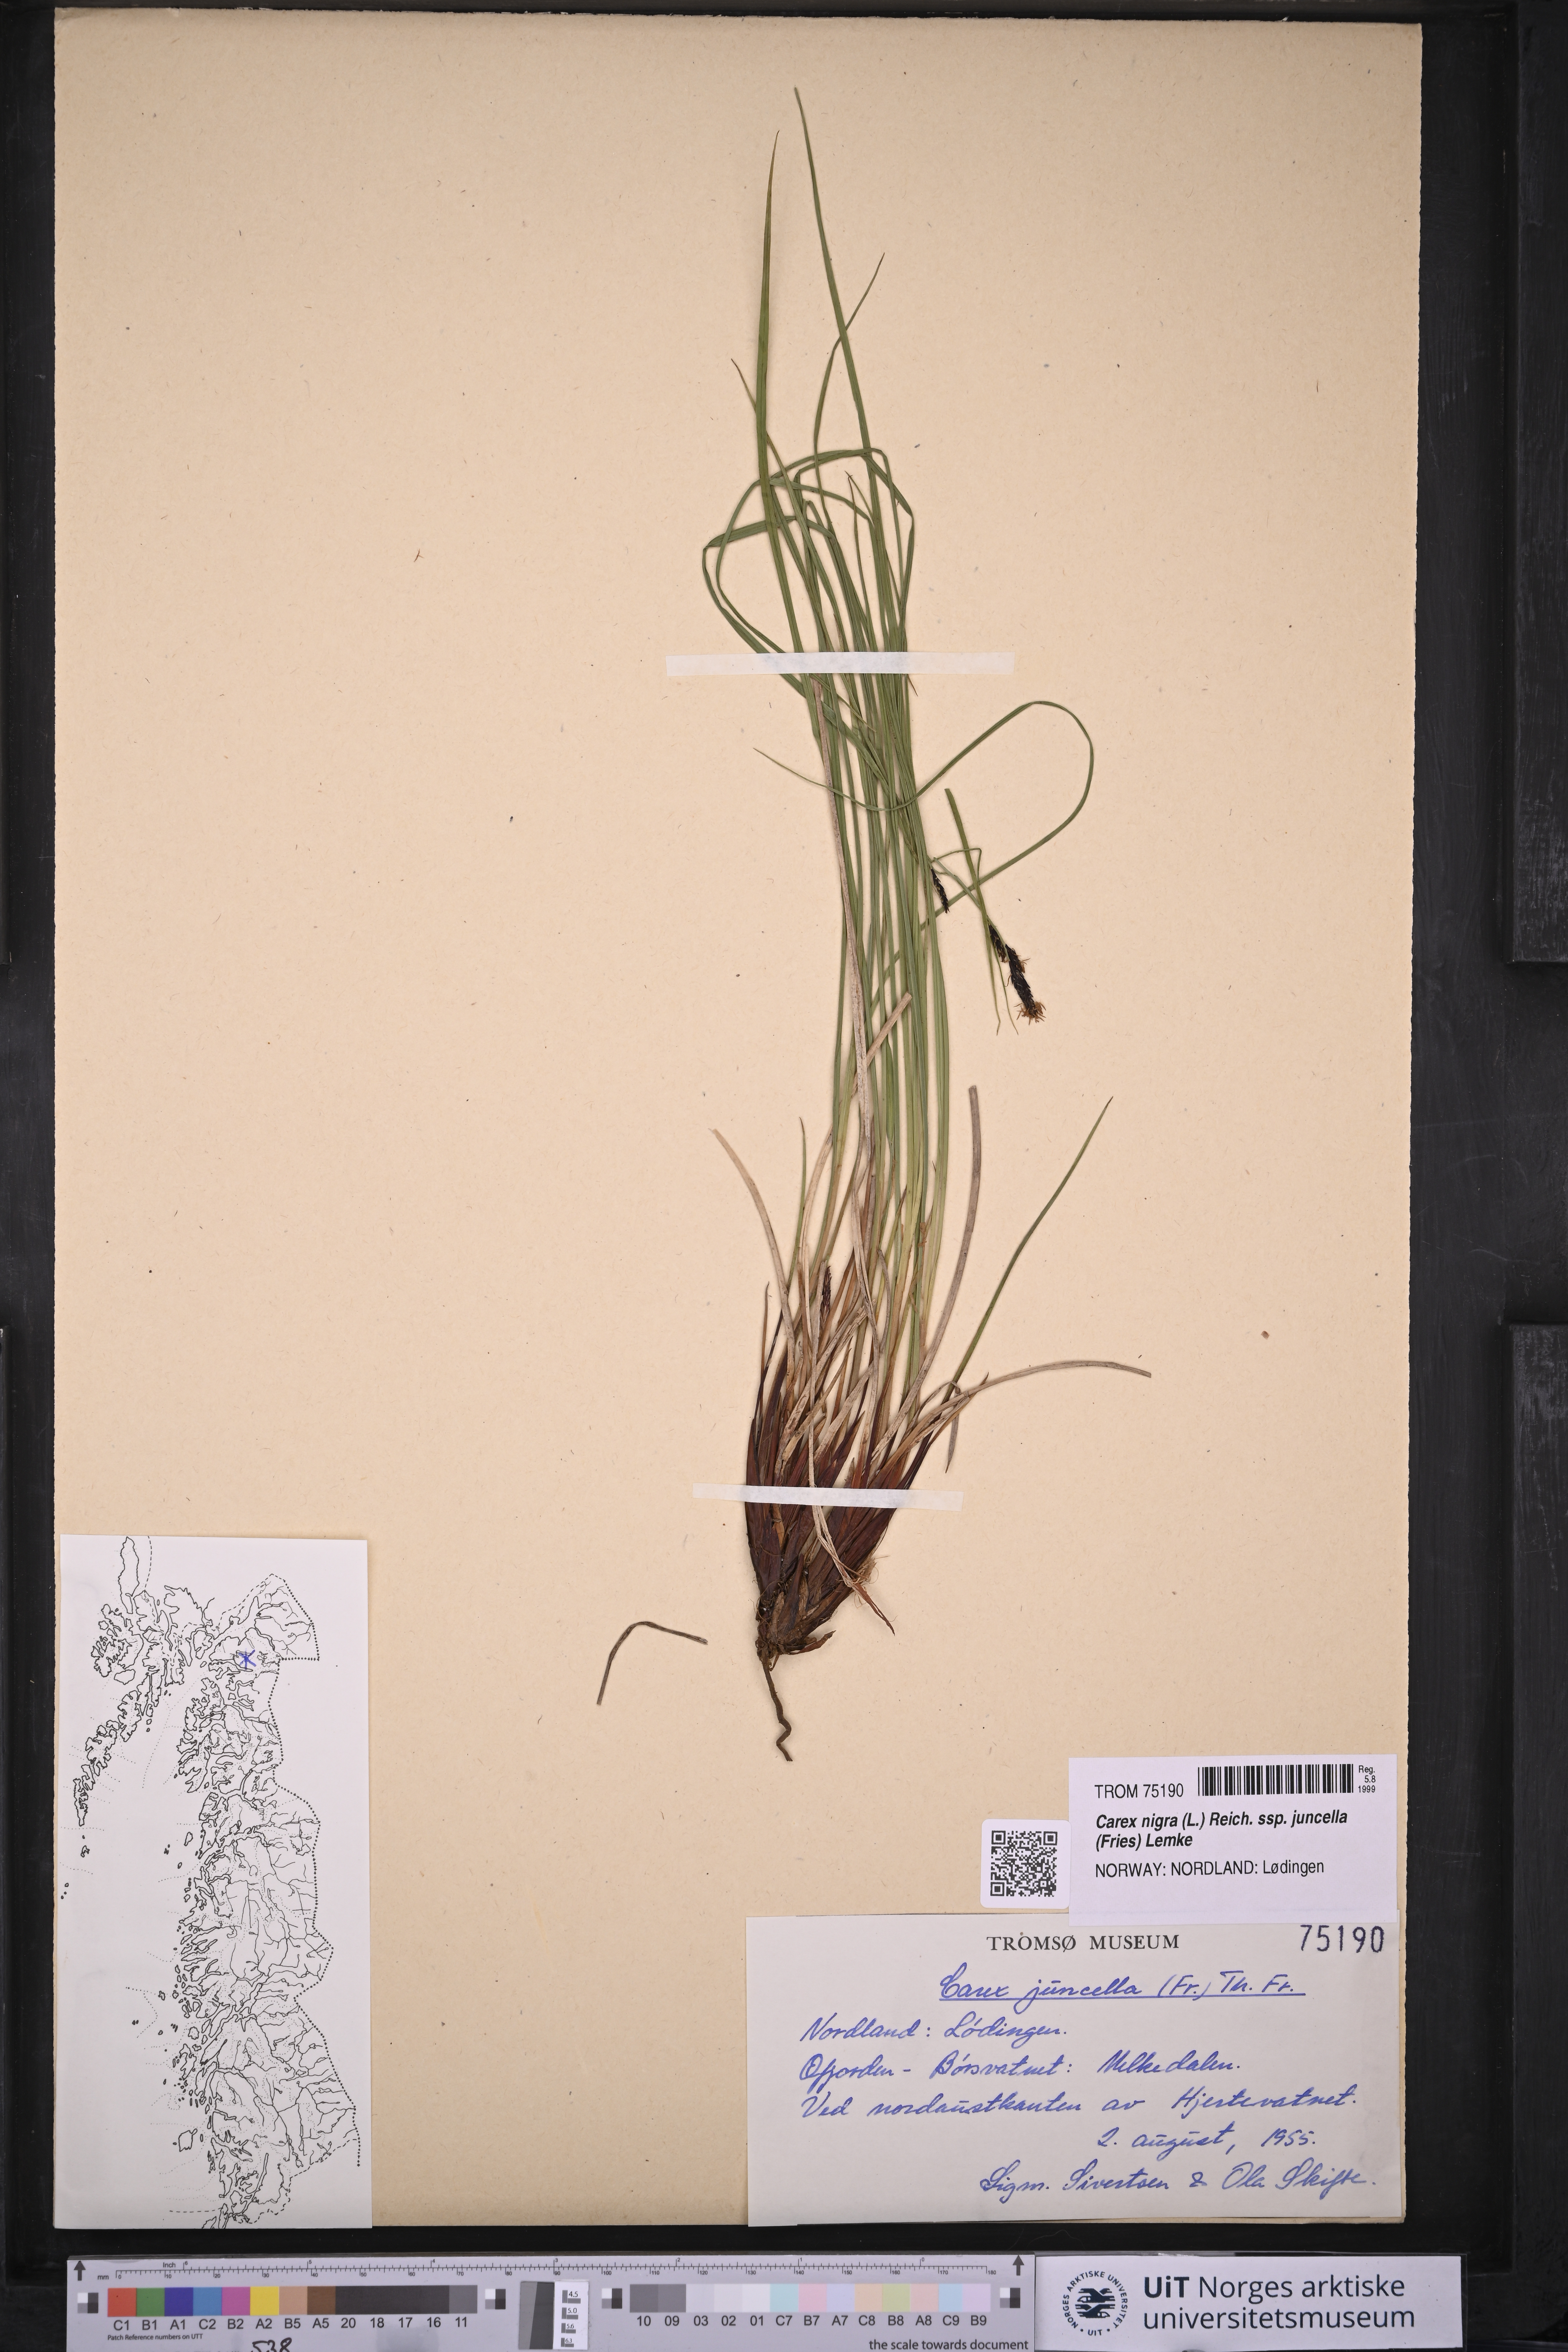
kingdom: Plantae
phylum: Tracheophyta
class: Liliopsida
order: Poales
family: Cyperaceae
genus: Carex
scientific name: Carex nigra
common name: Common sedge
